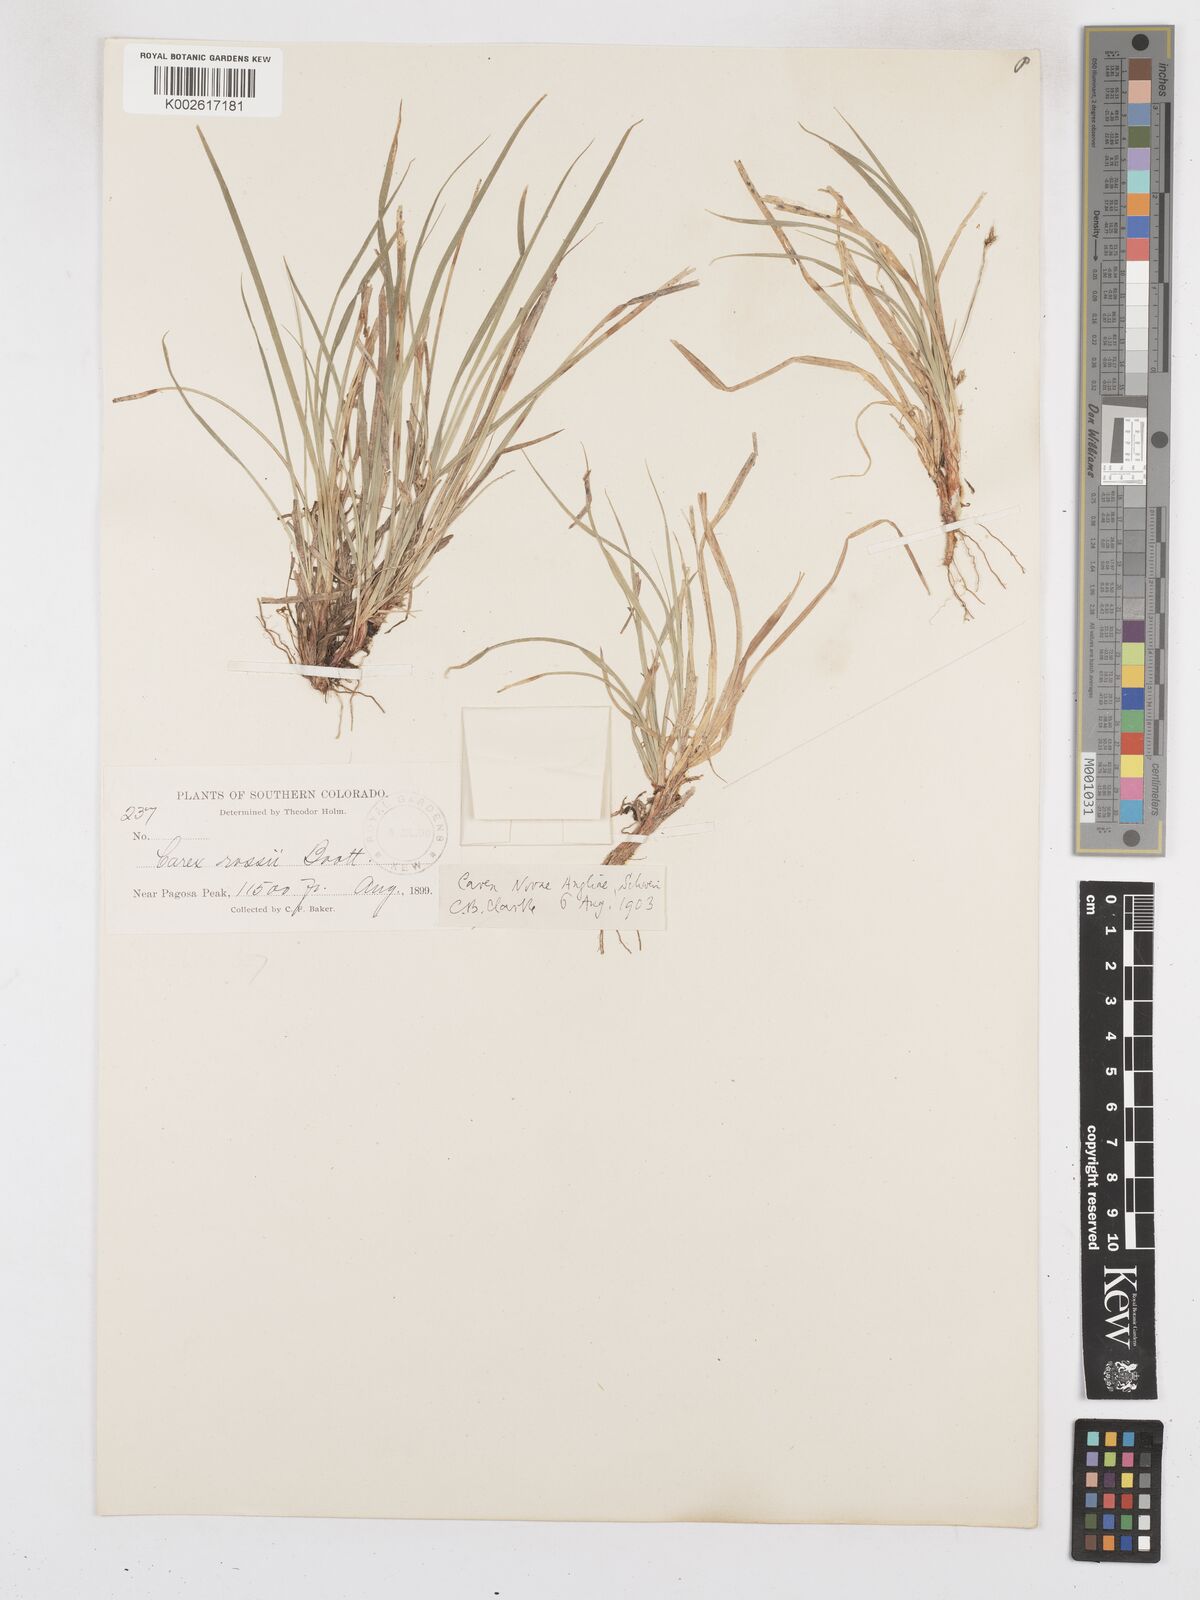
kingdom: Plantae
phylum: Tracheophyta
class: Liliopsida
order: Poales
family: Cyperaceae
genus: Carex
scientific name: Carex novae-angliae
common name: New england sedge
